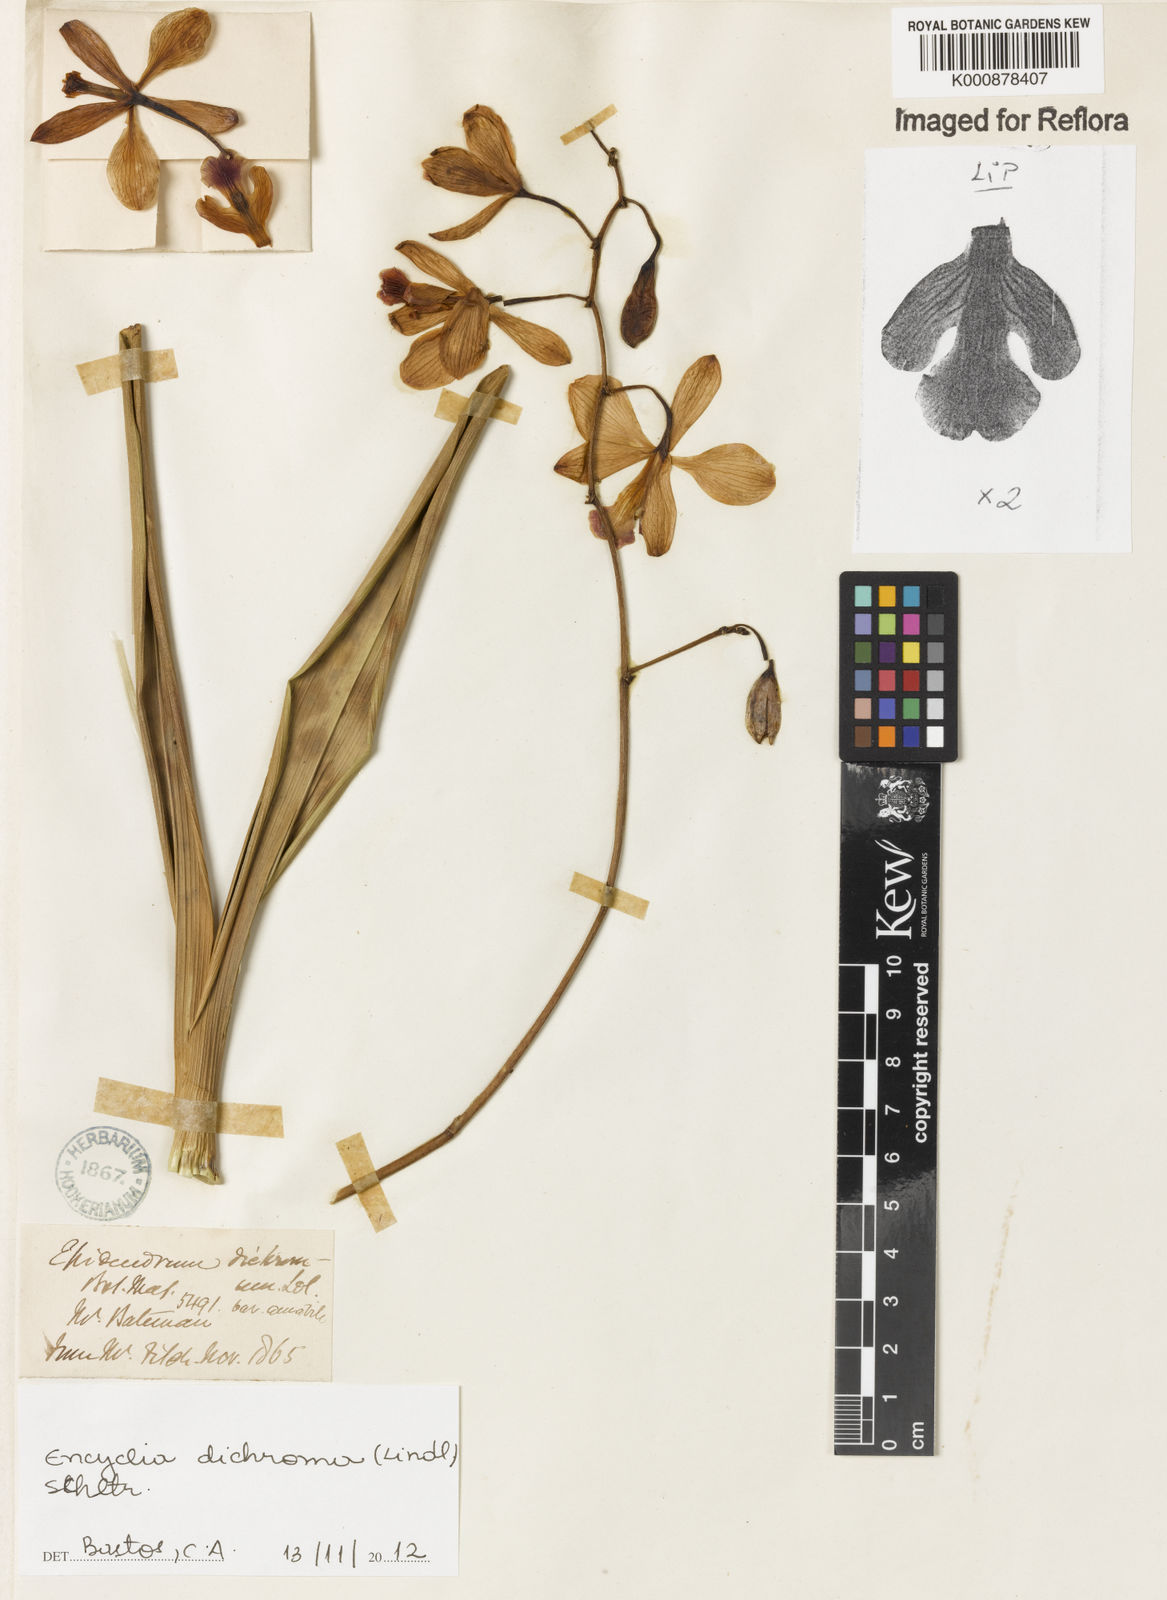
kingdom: Plantae
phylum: Tracheophyta
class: Liliopsida
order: Asparagales
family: Orchidaceae
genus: Encyclia
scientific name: Encyclia cordigera
